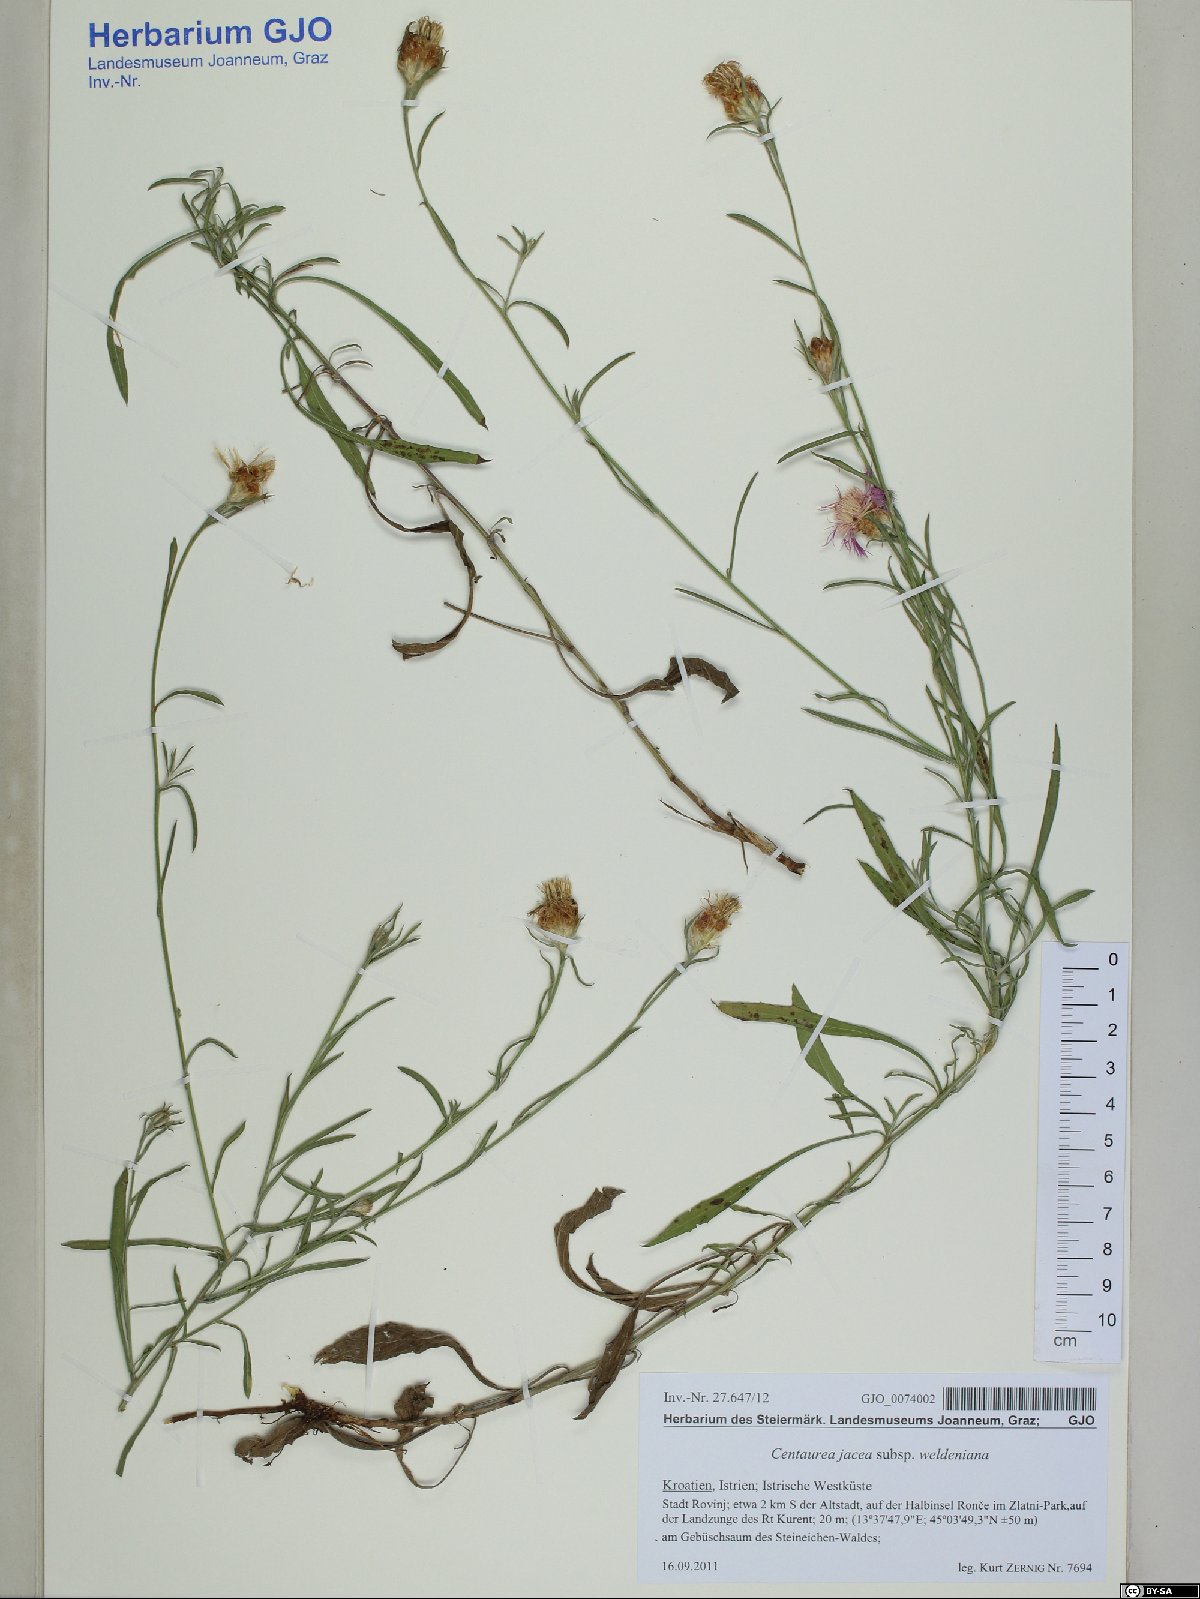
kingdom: Plantae
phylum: Tracheophyta
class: Magnoliopsida
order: Asterales
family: Asteraceae
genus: Centaurea
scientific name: Centaurea jacea
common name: Brown knapweed
